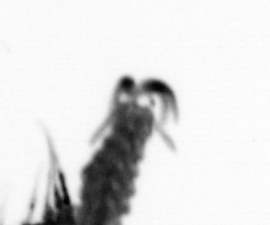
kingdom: Animalia
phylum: Annelida
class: Polychaeta
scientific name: Polychaeta
